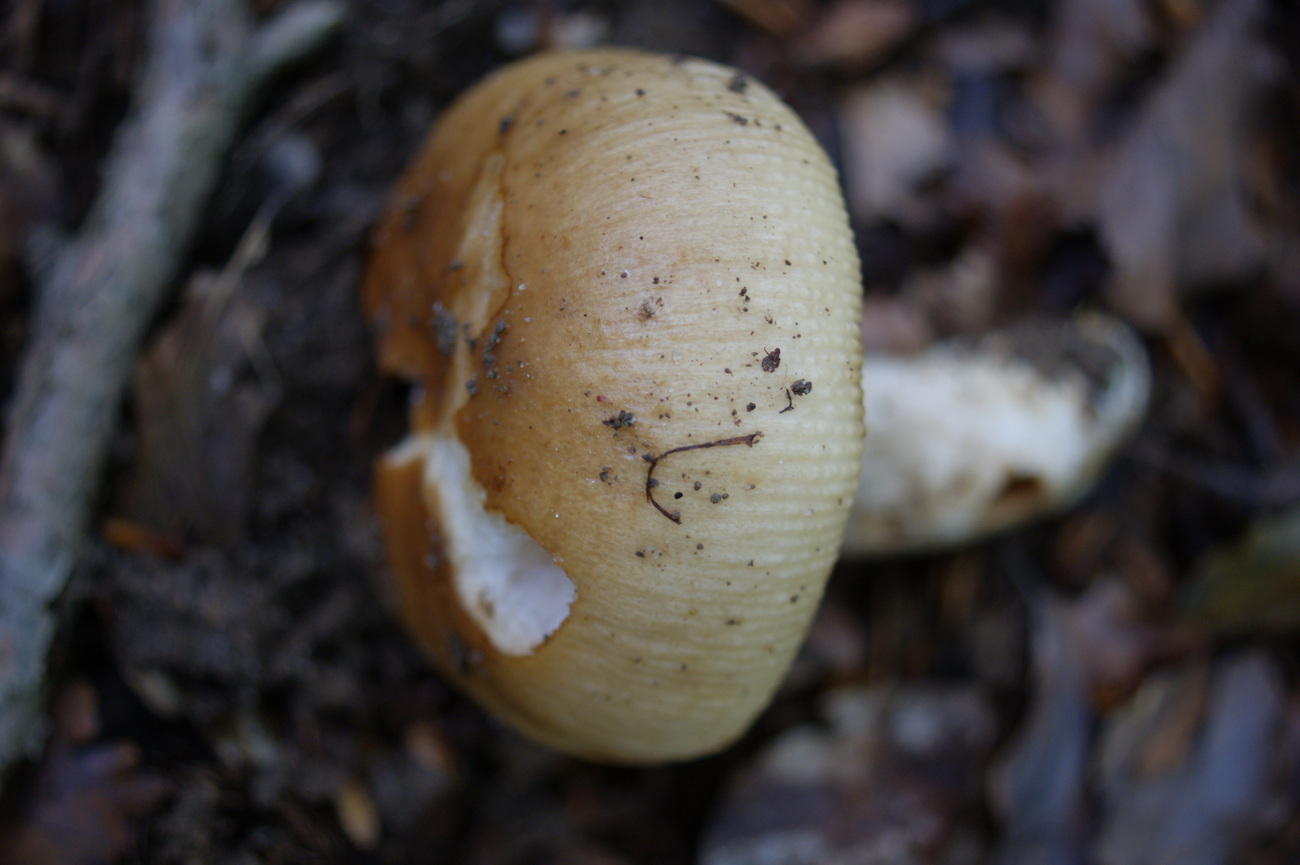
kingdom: Fungi
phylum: Basidiomycota
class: Agaricomycetes
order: Russulales
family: Russulaceae
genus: Russula
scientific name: Russula illota
